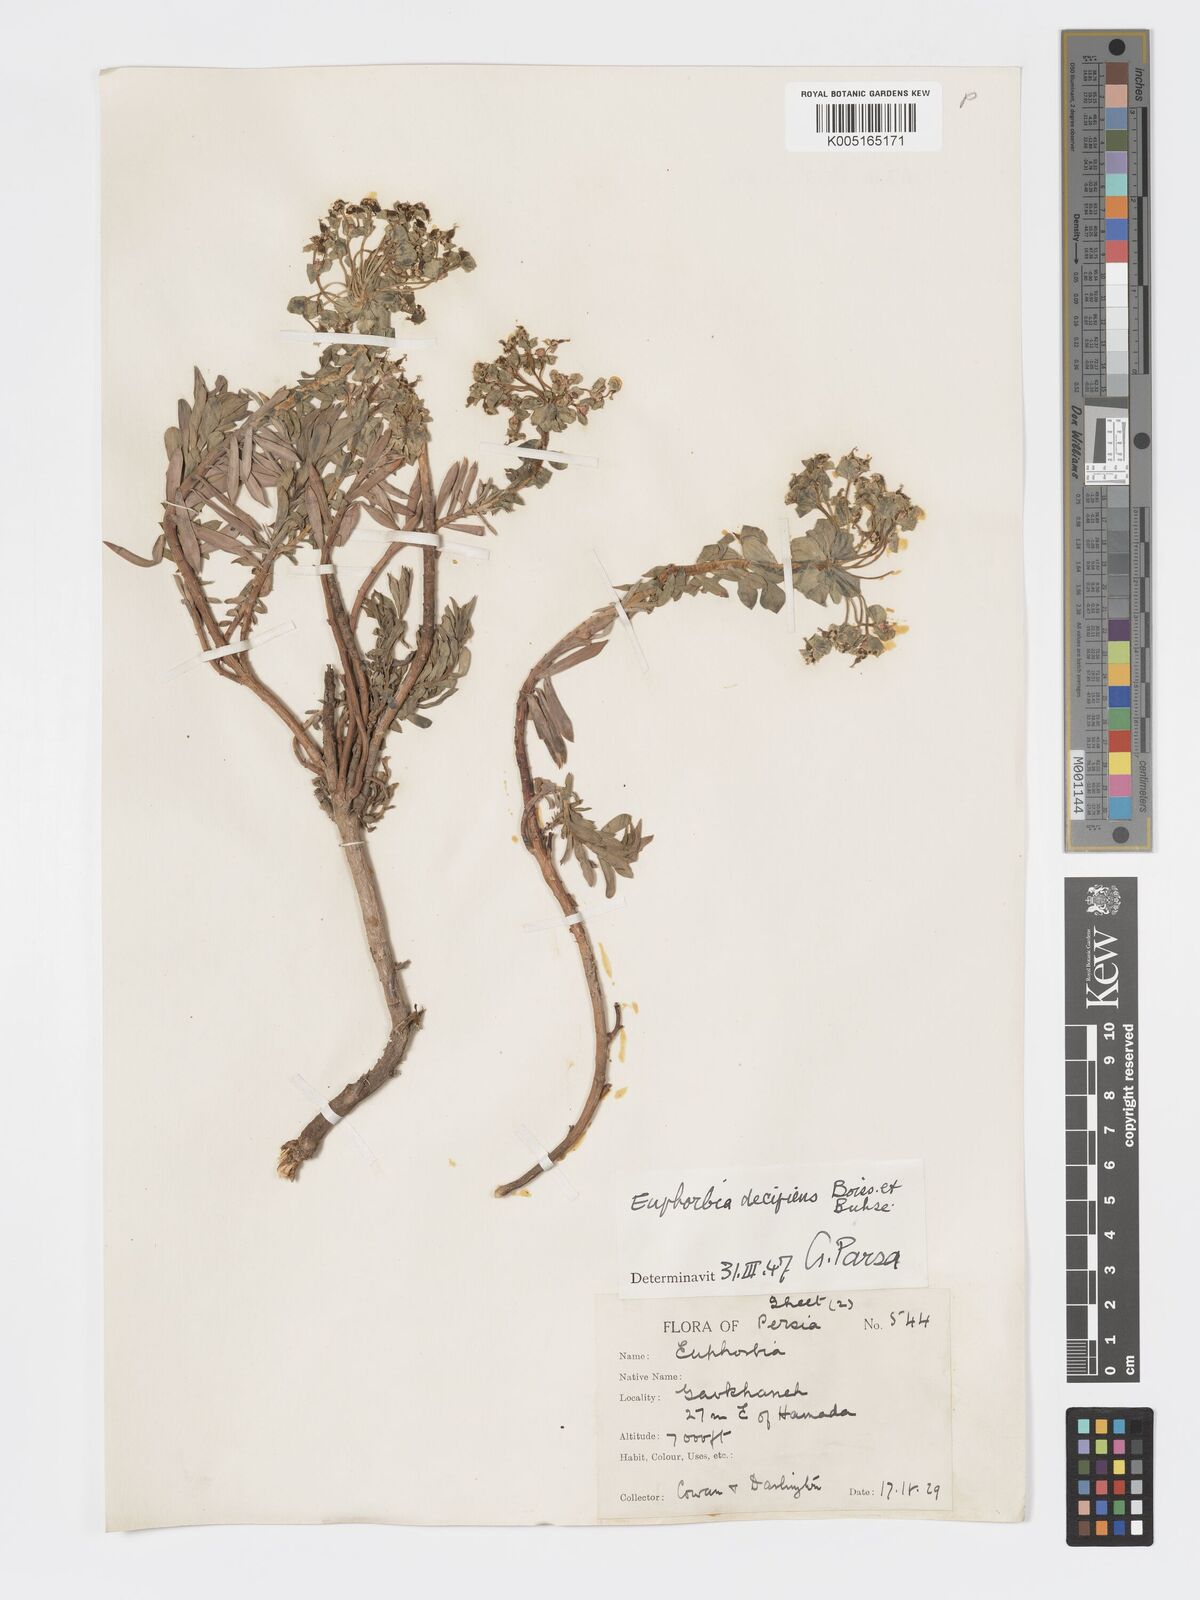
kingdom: Plantae
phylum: Tracheophyta
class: Magnoliopsida
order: Malpighiales
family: Euphorbiaceae
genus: Euphorbia
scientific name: Euphorbia polycaulis
